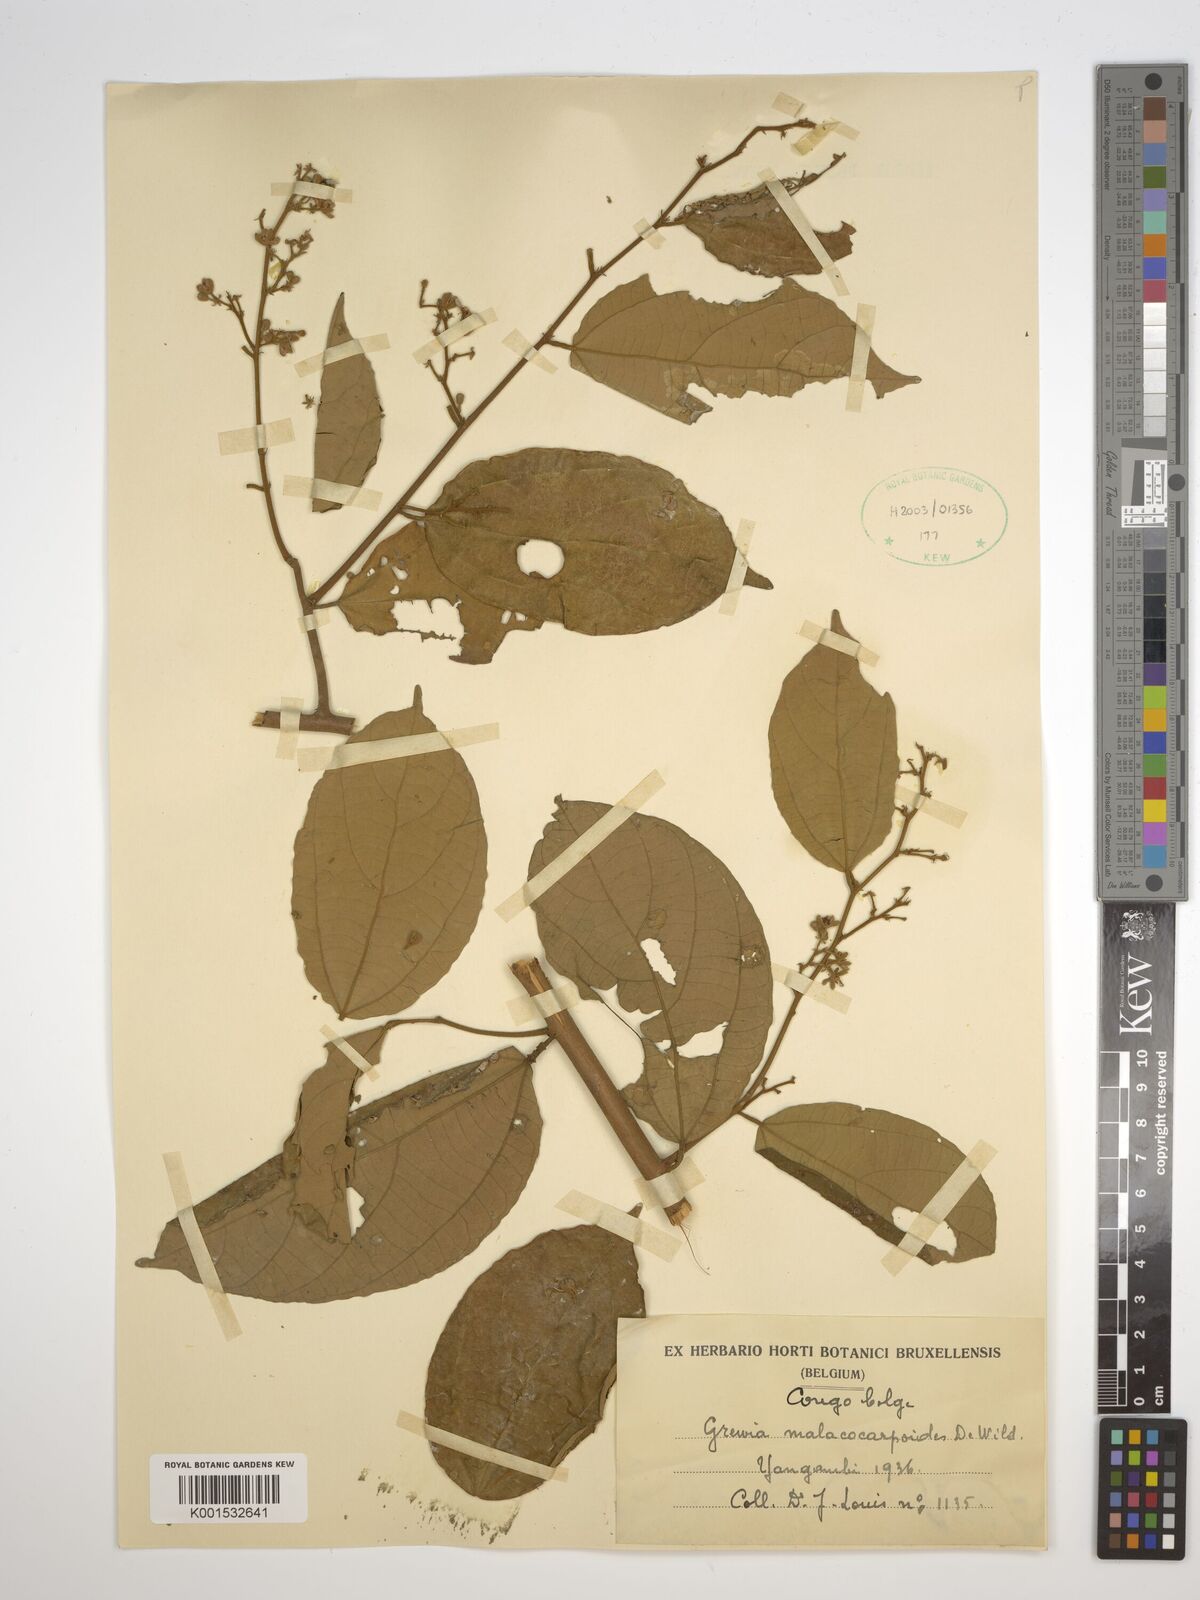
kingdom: Plantae
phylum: Tracheophyta
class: Magnoliopsida
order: Malvales
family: Malvaceae
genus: Microcos
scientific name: Microcos malacocarpa
